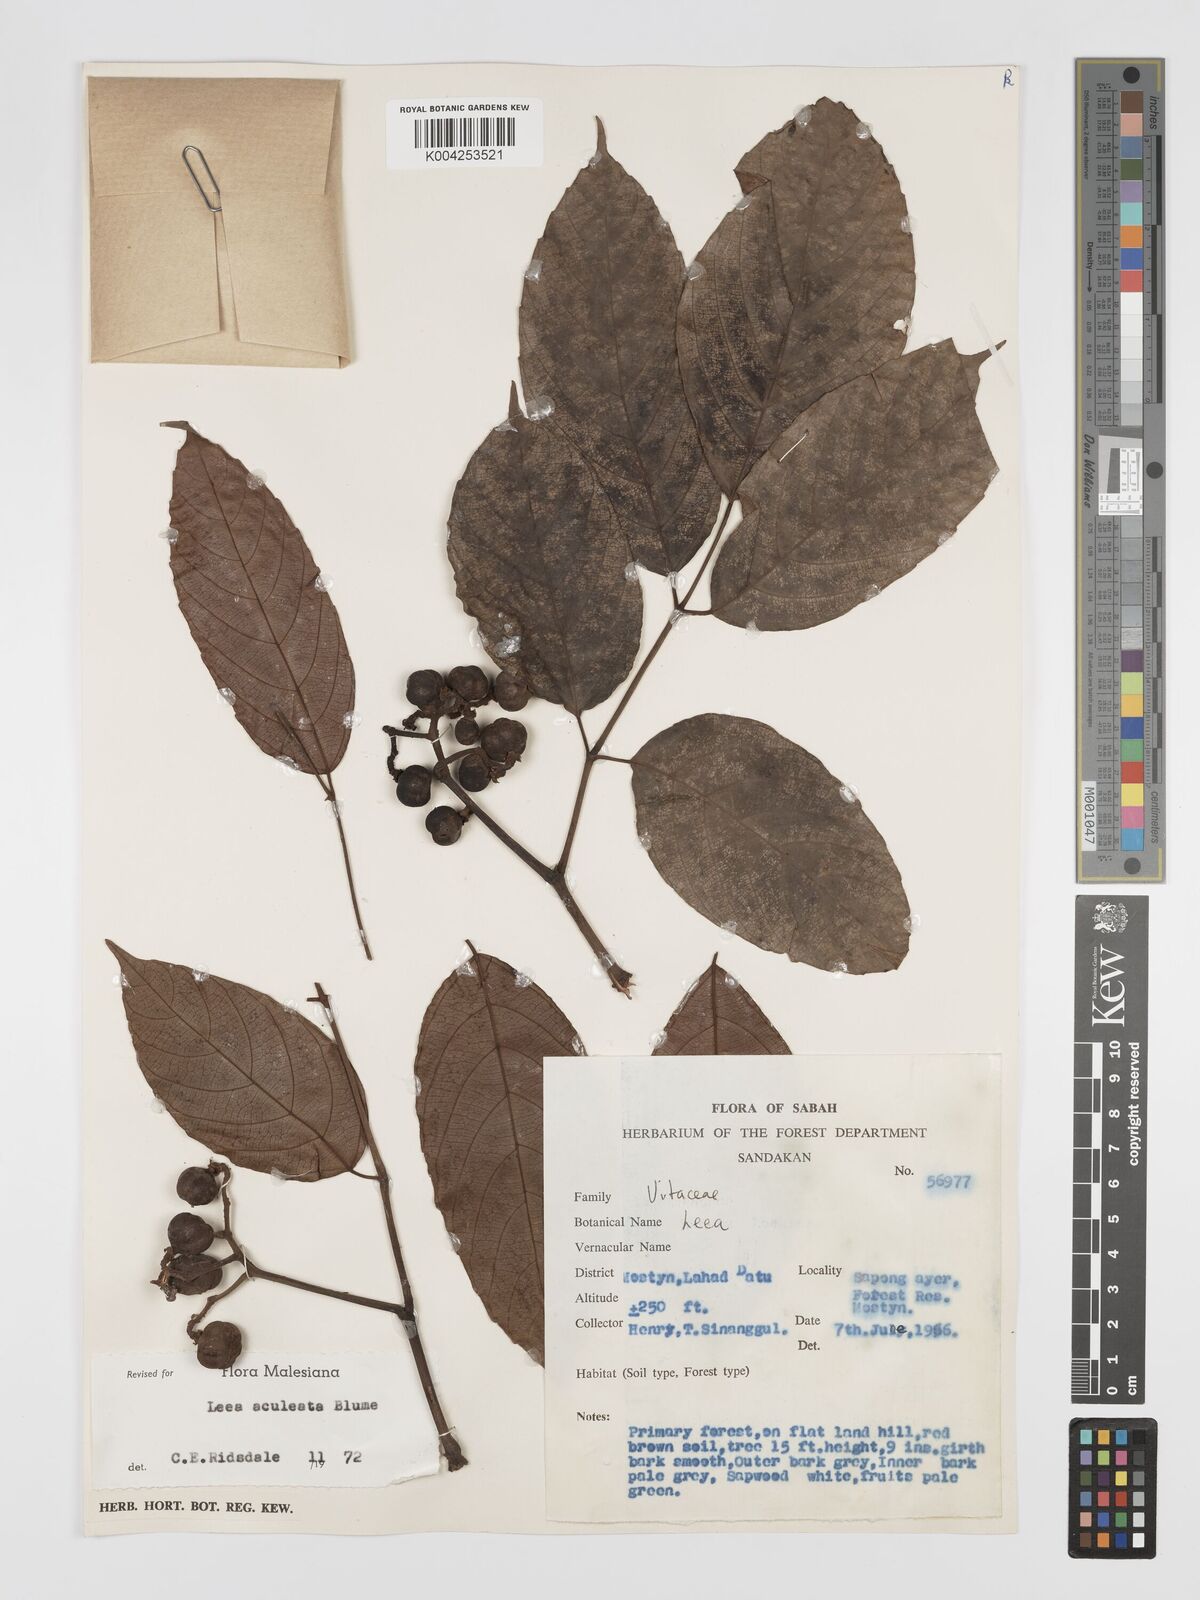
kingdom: Plantae
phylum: Tracheophyta
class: Magnoliopsida
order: Vitales
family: Vitaceae
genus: Leea
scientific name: Leea aculeata
